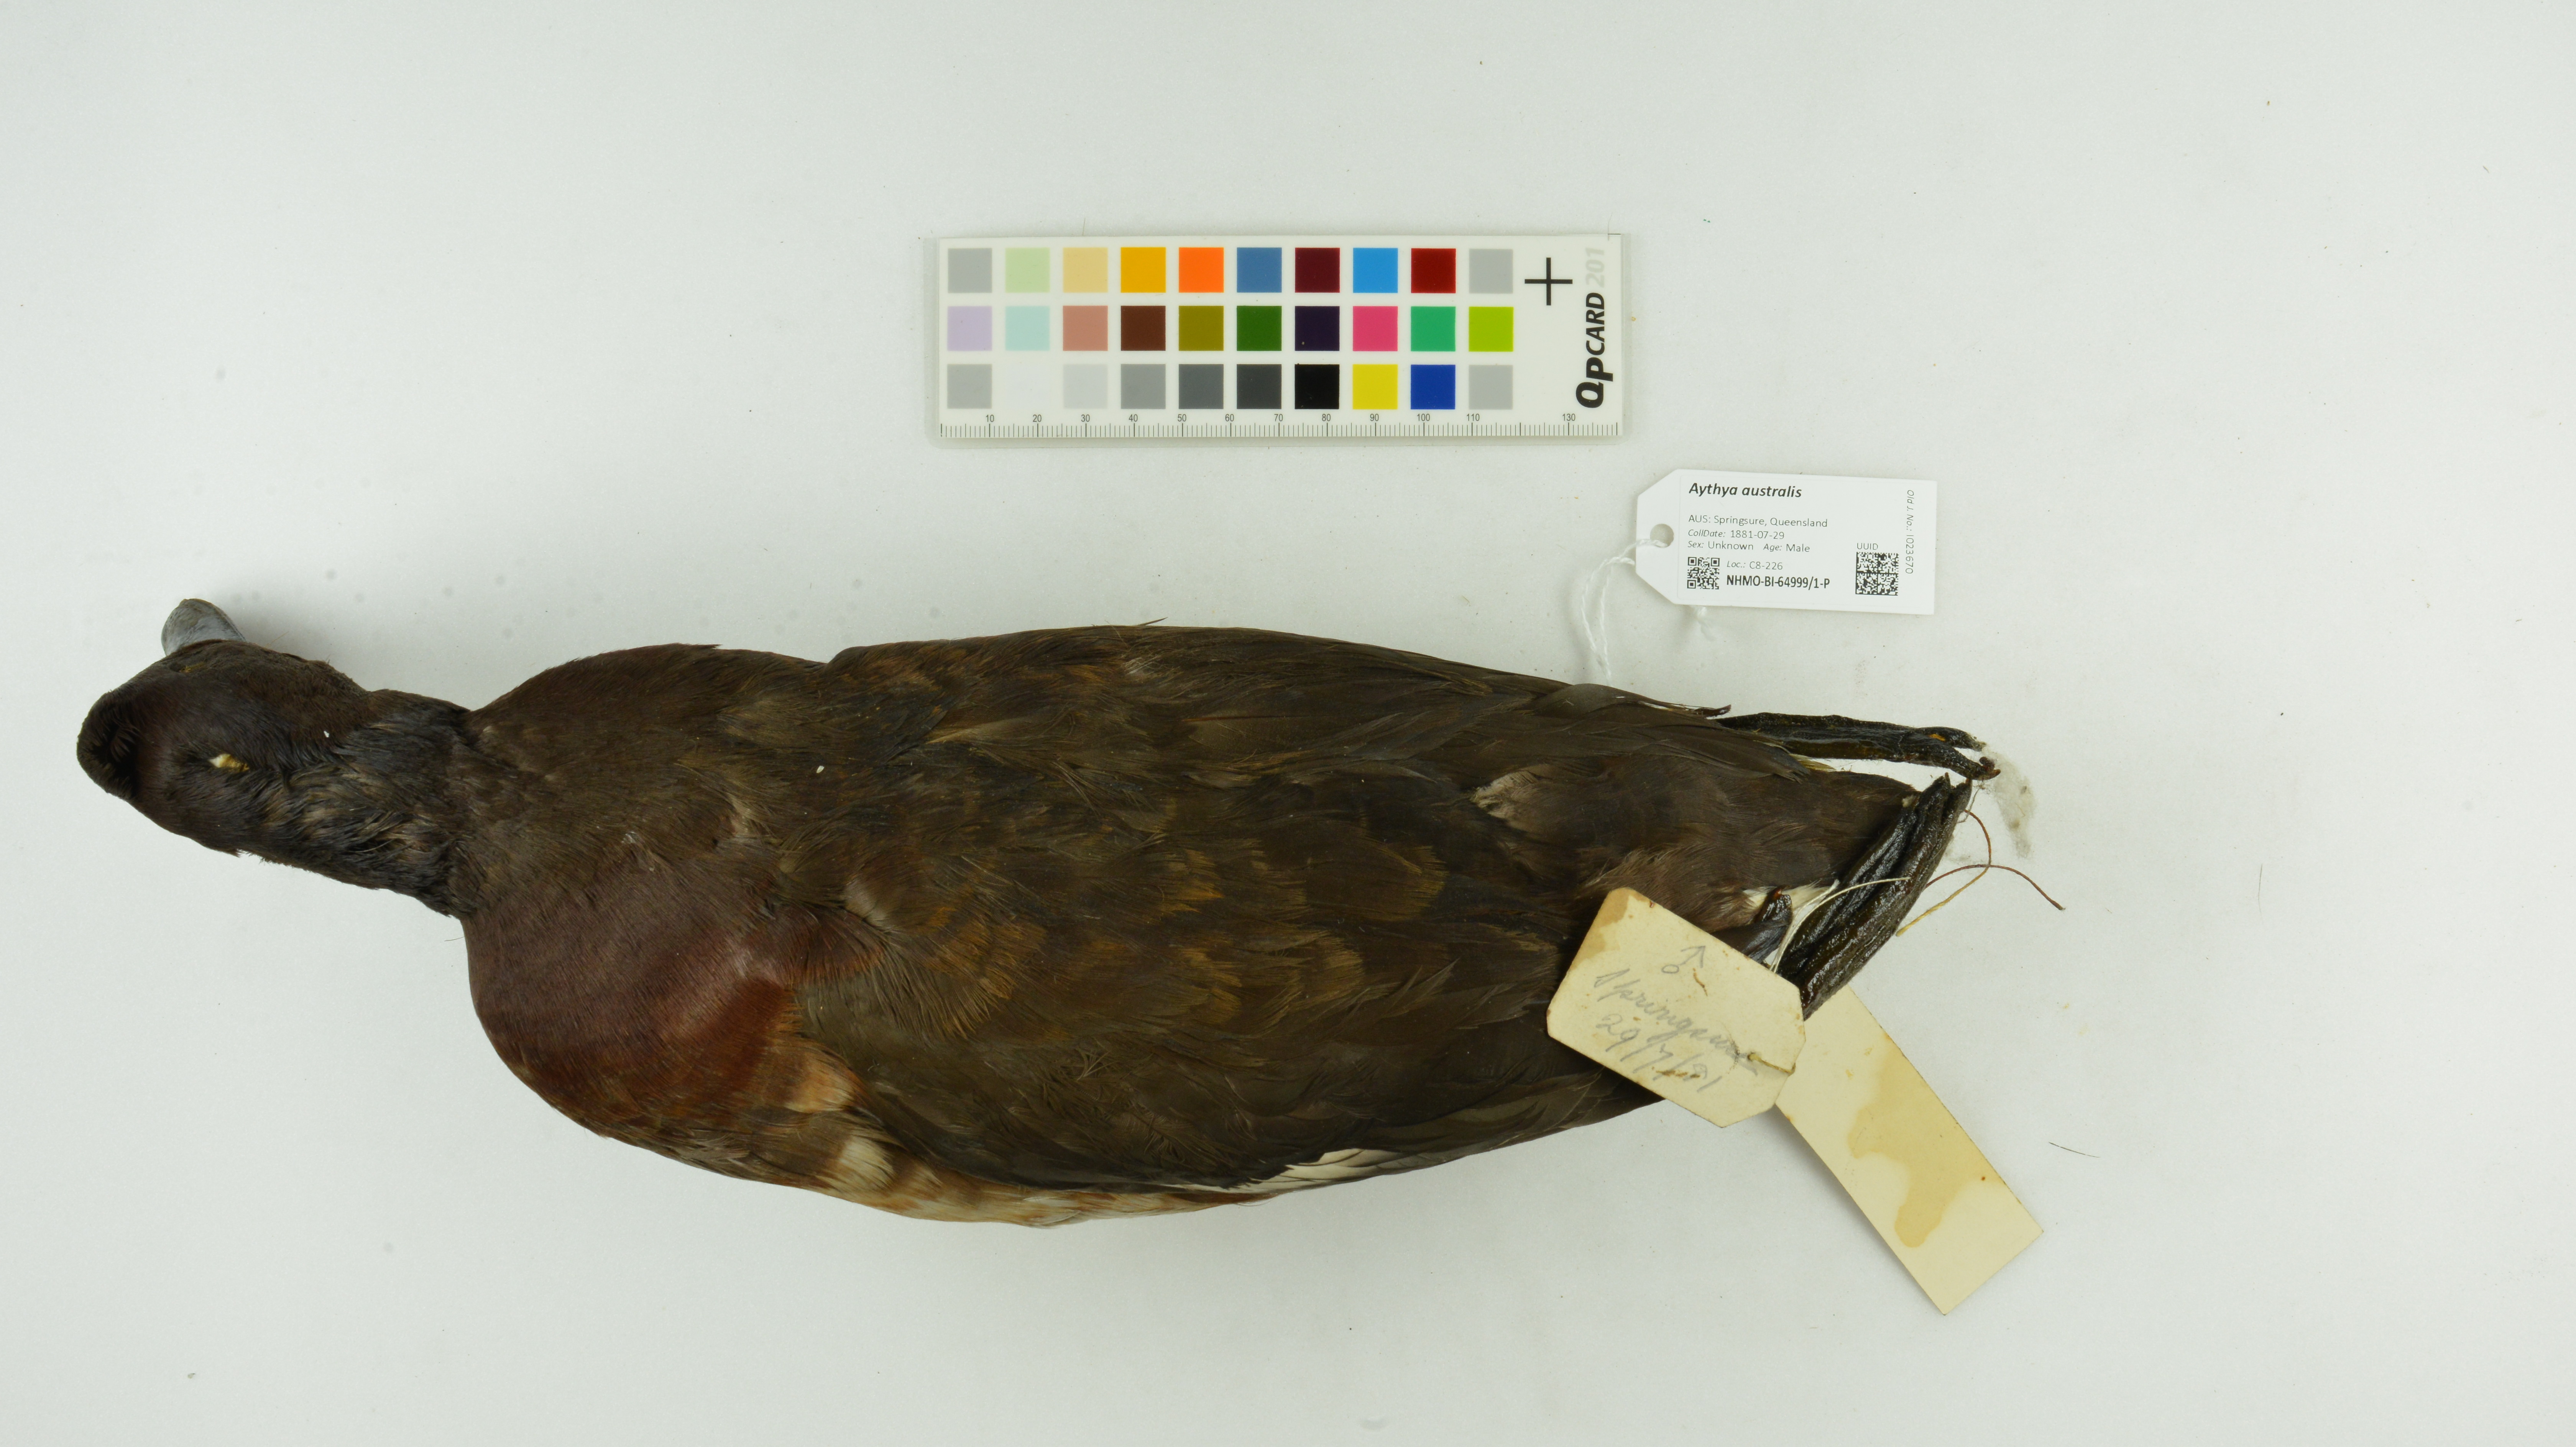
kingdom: Animalia
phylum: Chordata
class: Aves
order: Anseriformes
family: Anatidae
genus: Aythya
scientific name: Aythya australis
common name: Hardhead
